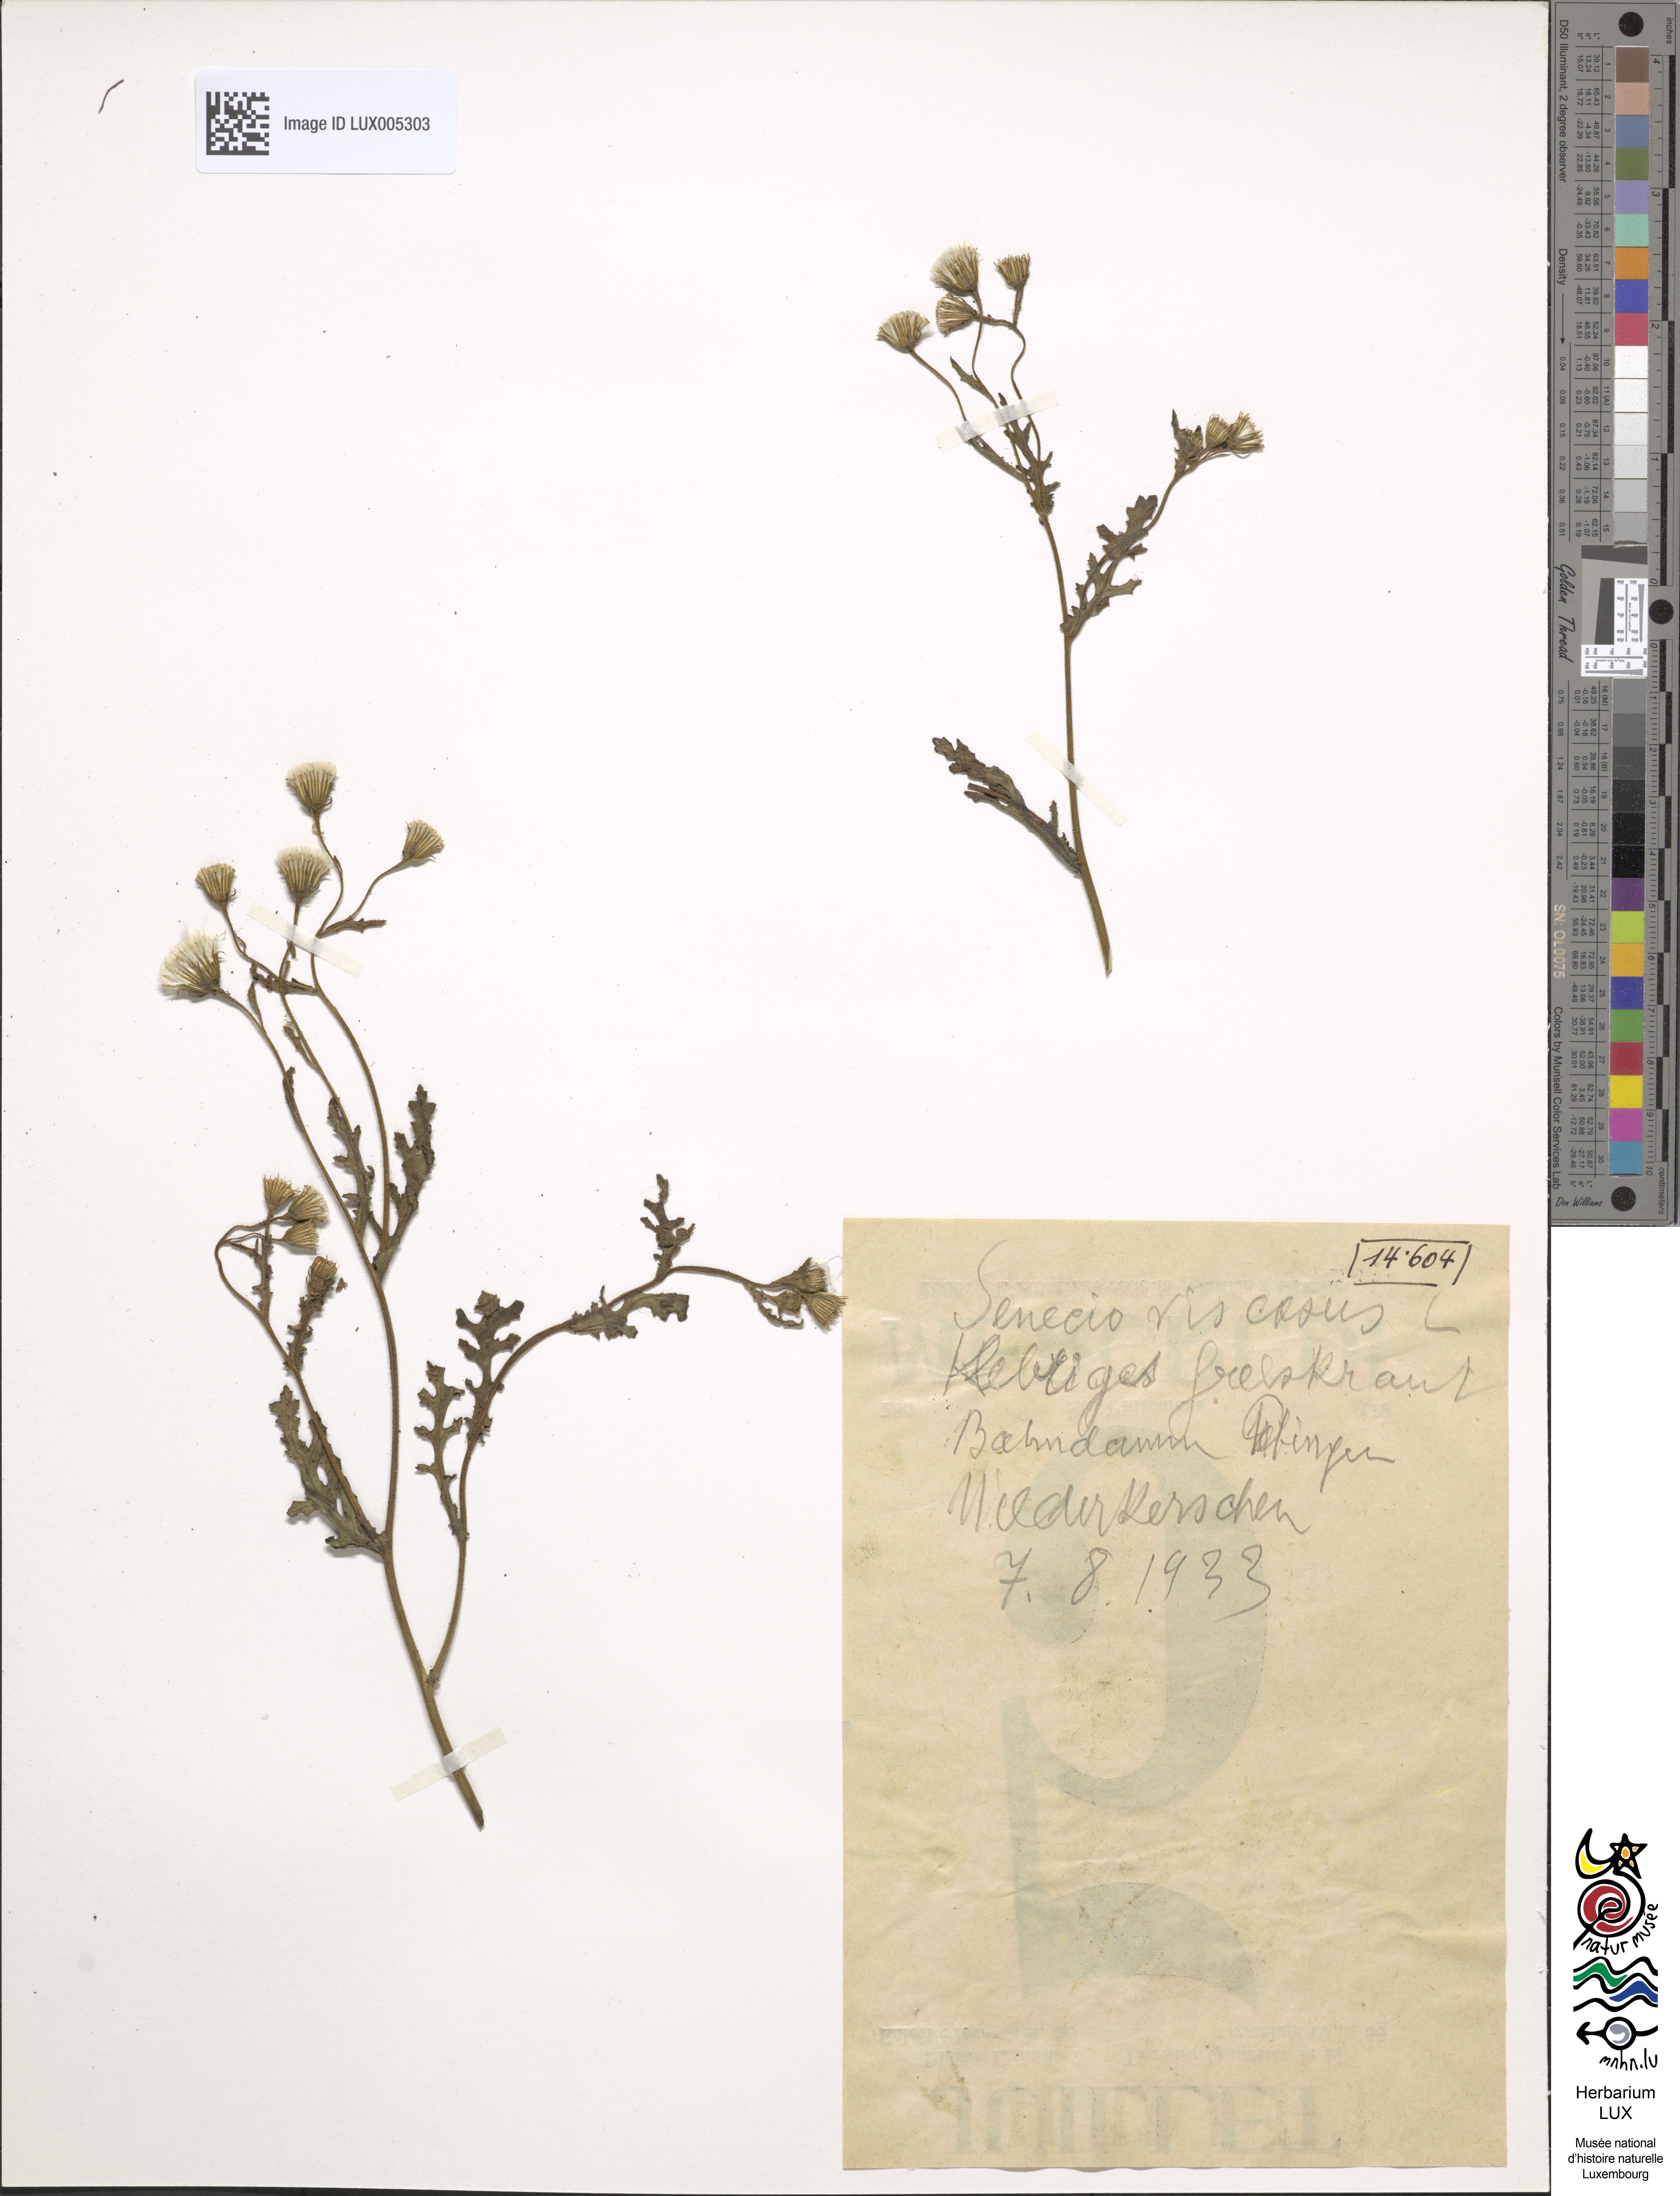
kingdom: Plantae
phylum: Tracheophyta
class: Magnoliopsida
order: Asterales
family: Asteraceae
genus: Senecio
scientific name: Senecio viscosus
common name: Sticky groundsel
